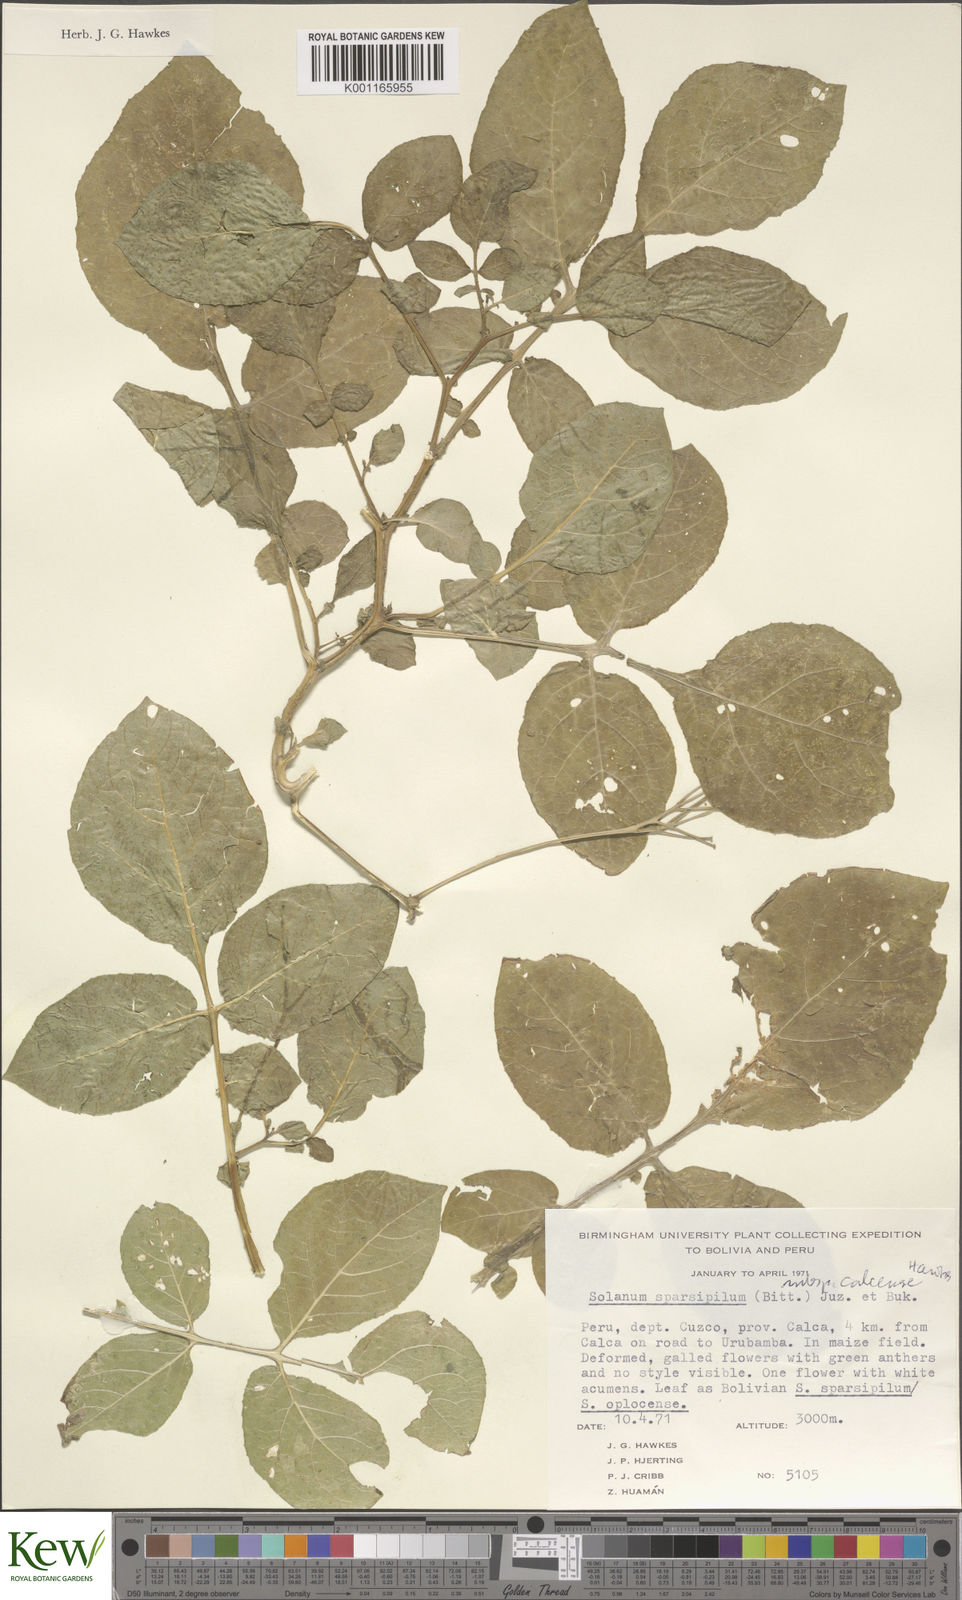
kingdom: Plantae
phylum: Tracheophyta
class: Magnoliopsida
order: Solanales
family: Solanaceae
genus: Solanum
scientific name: Solanum brevicaule
